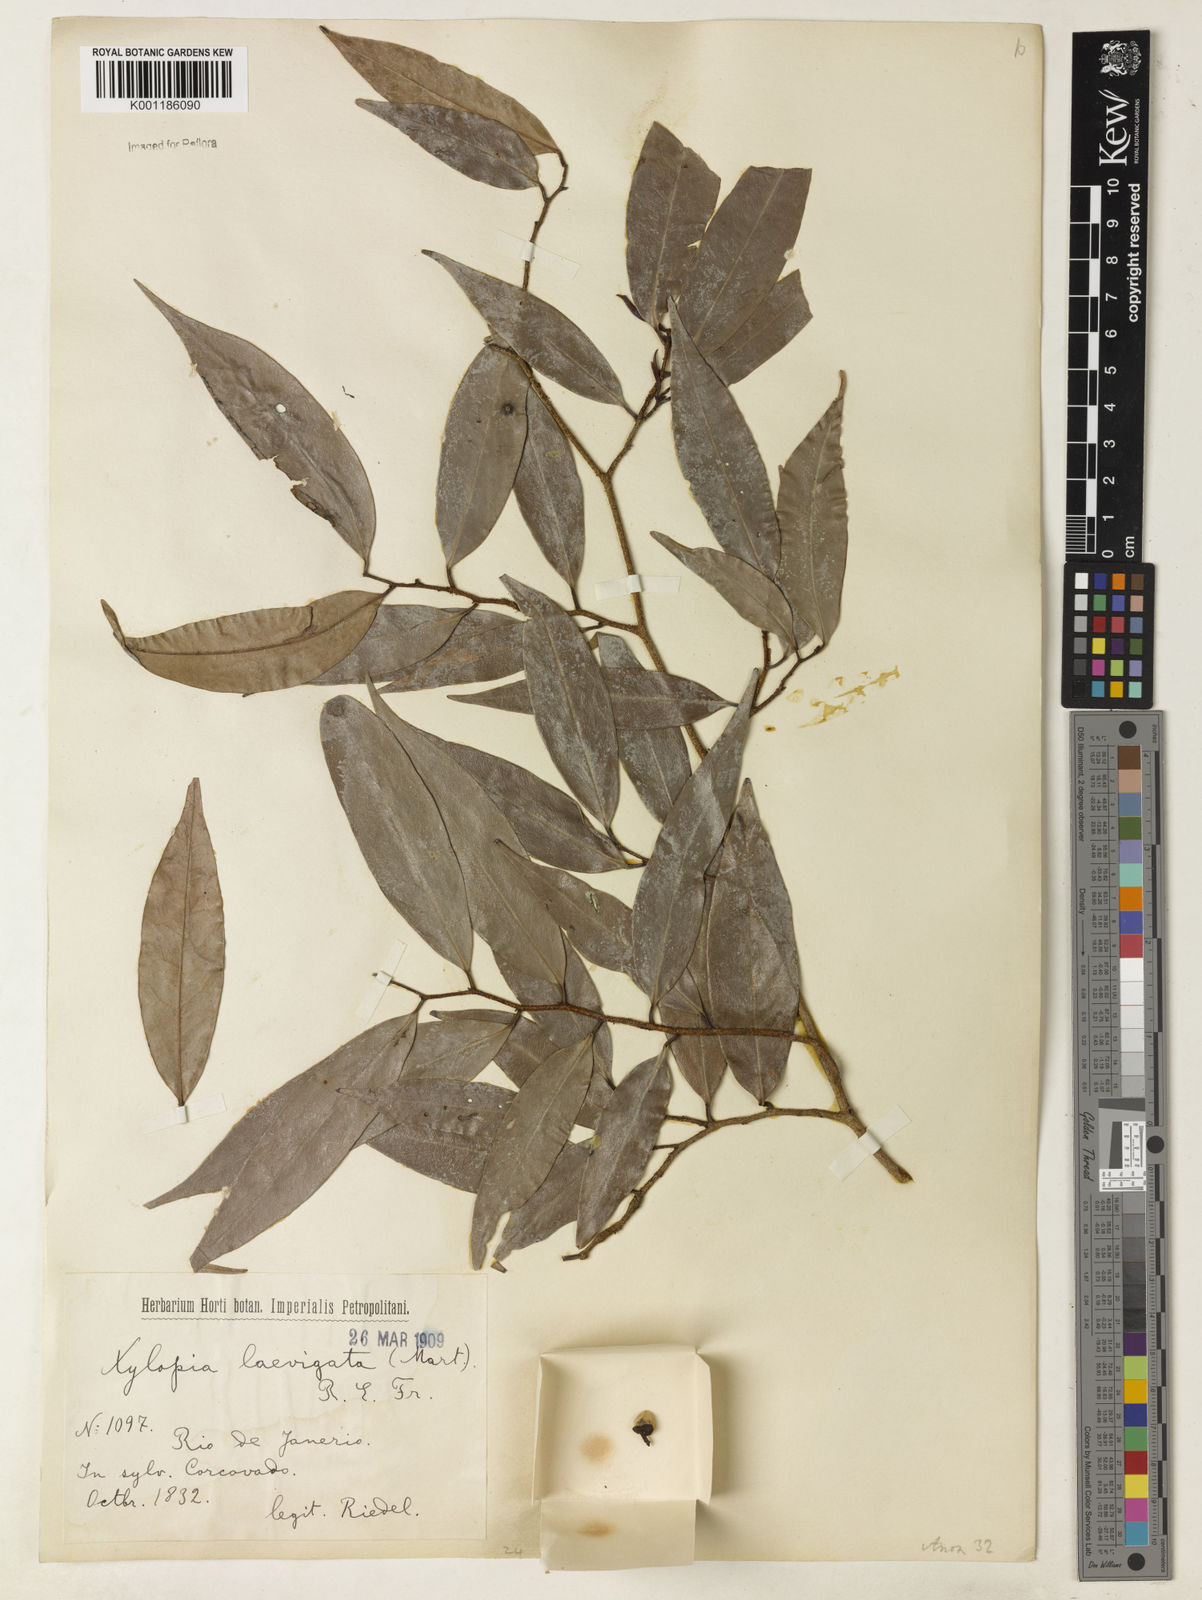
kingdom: Plantae
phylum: Tracheophyta
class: Magnoliopsida
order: Magnoliales
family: Annonaceae
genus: Xylopia
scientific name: Xylopia laevigata
